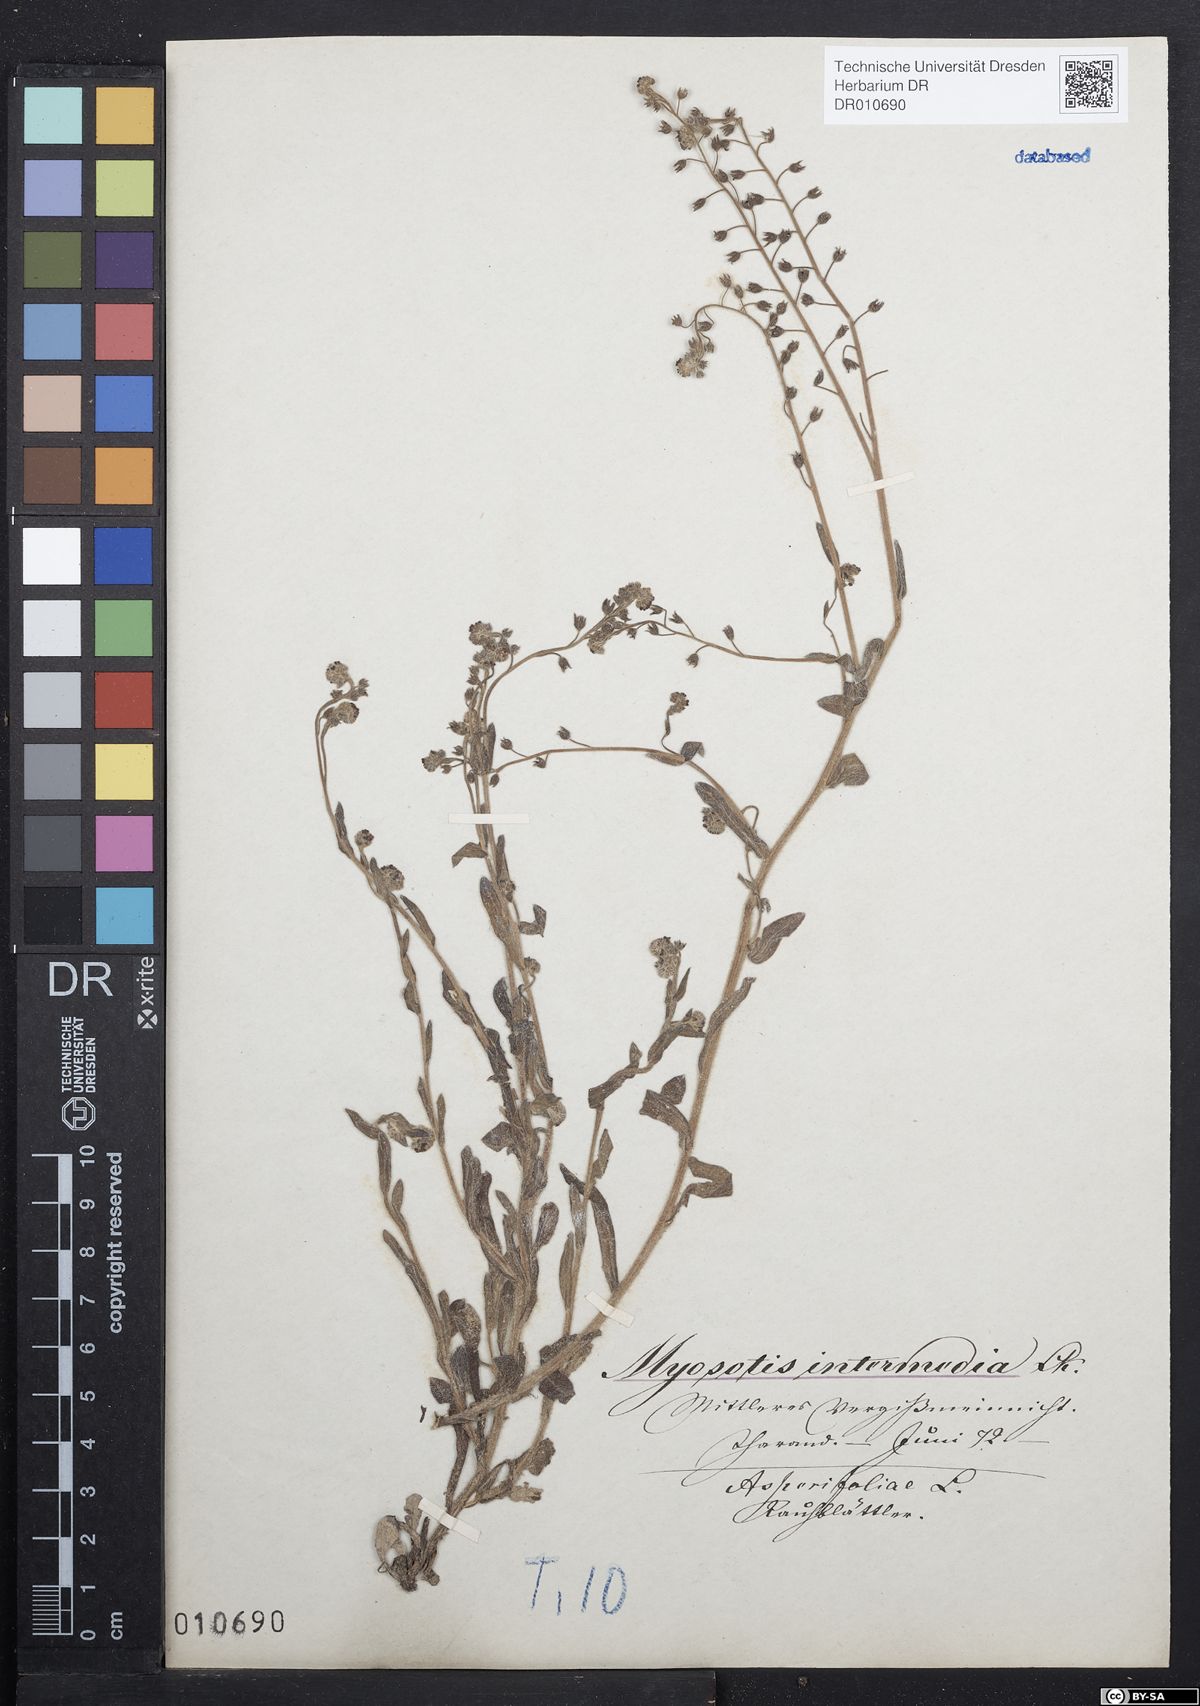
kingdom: Plantae
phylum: Tracheophyta
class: Magnoliopsida
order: Boraginales
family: Boraginaceae
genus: Myosotis
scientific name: Myosotis arvensis
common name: Field forget-me-not
